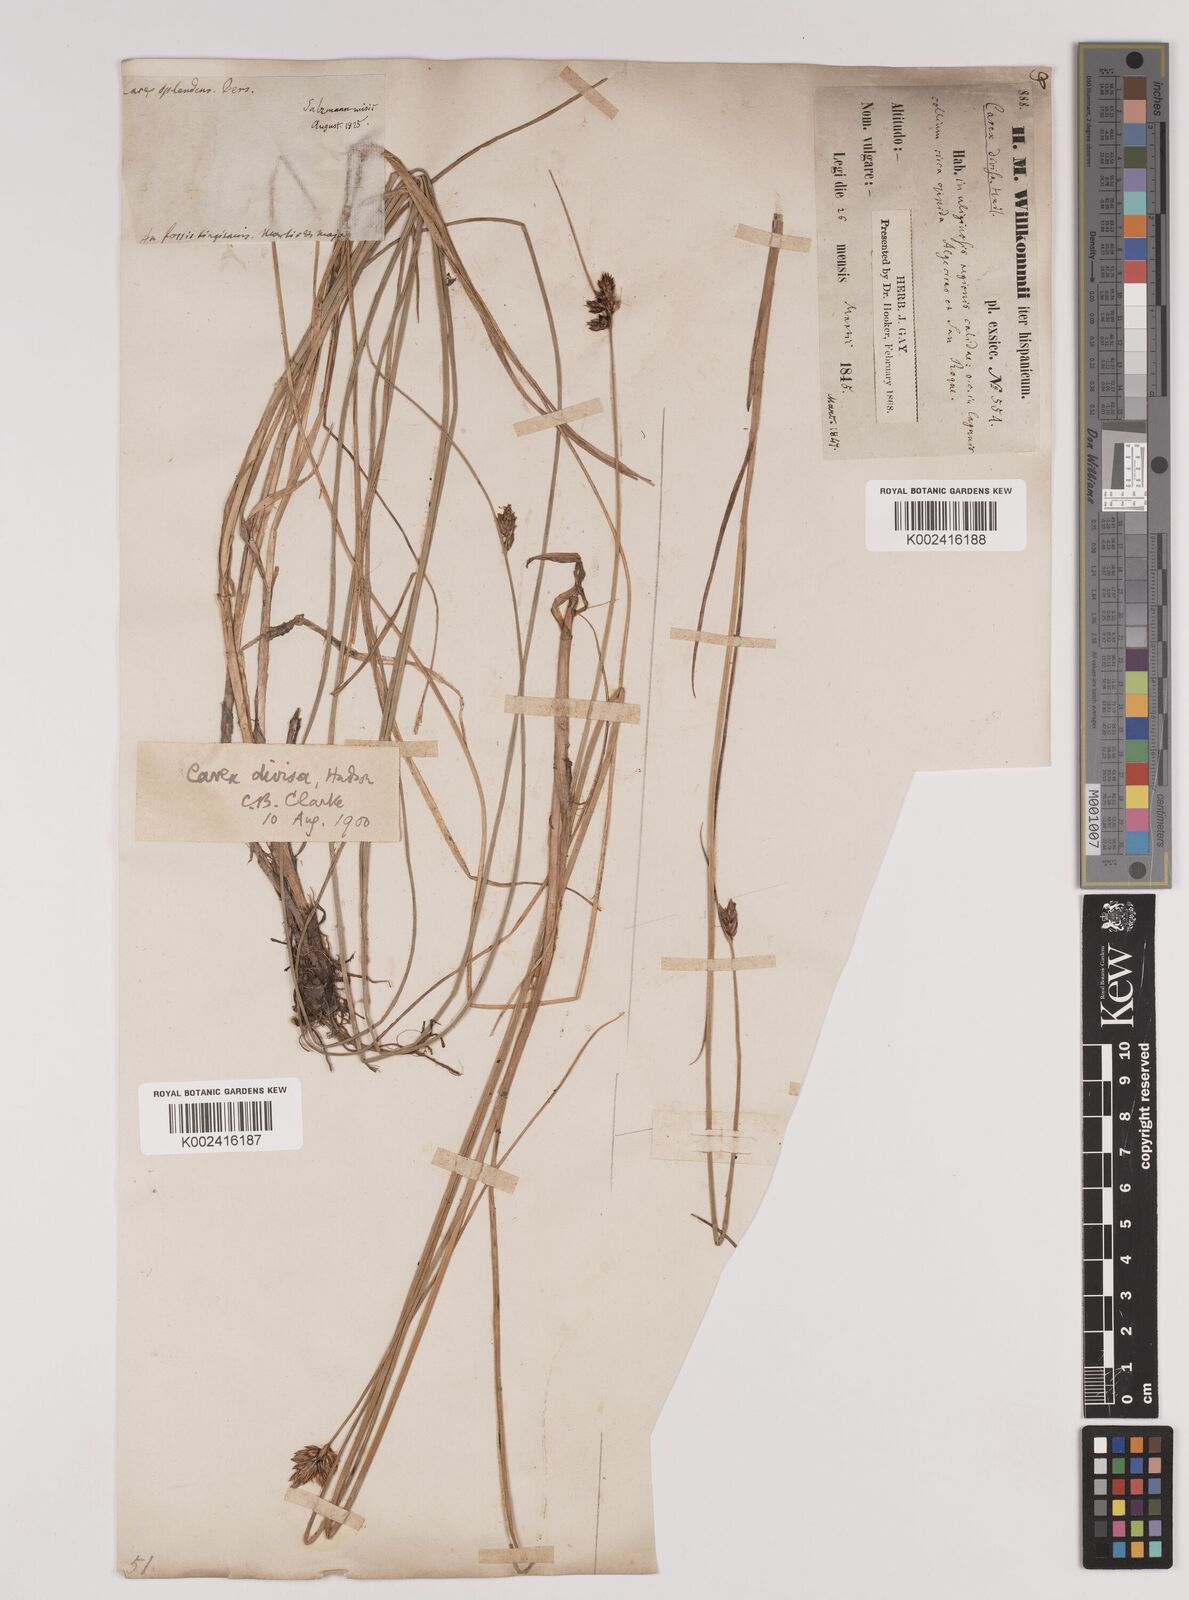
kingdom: Plantae
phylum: Tracheophyta
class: Liliopsida
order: Poales
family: Cyperaceae
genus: Carex
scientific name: Carex divisa
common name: Divided sedge
